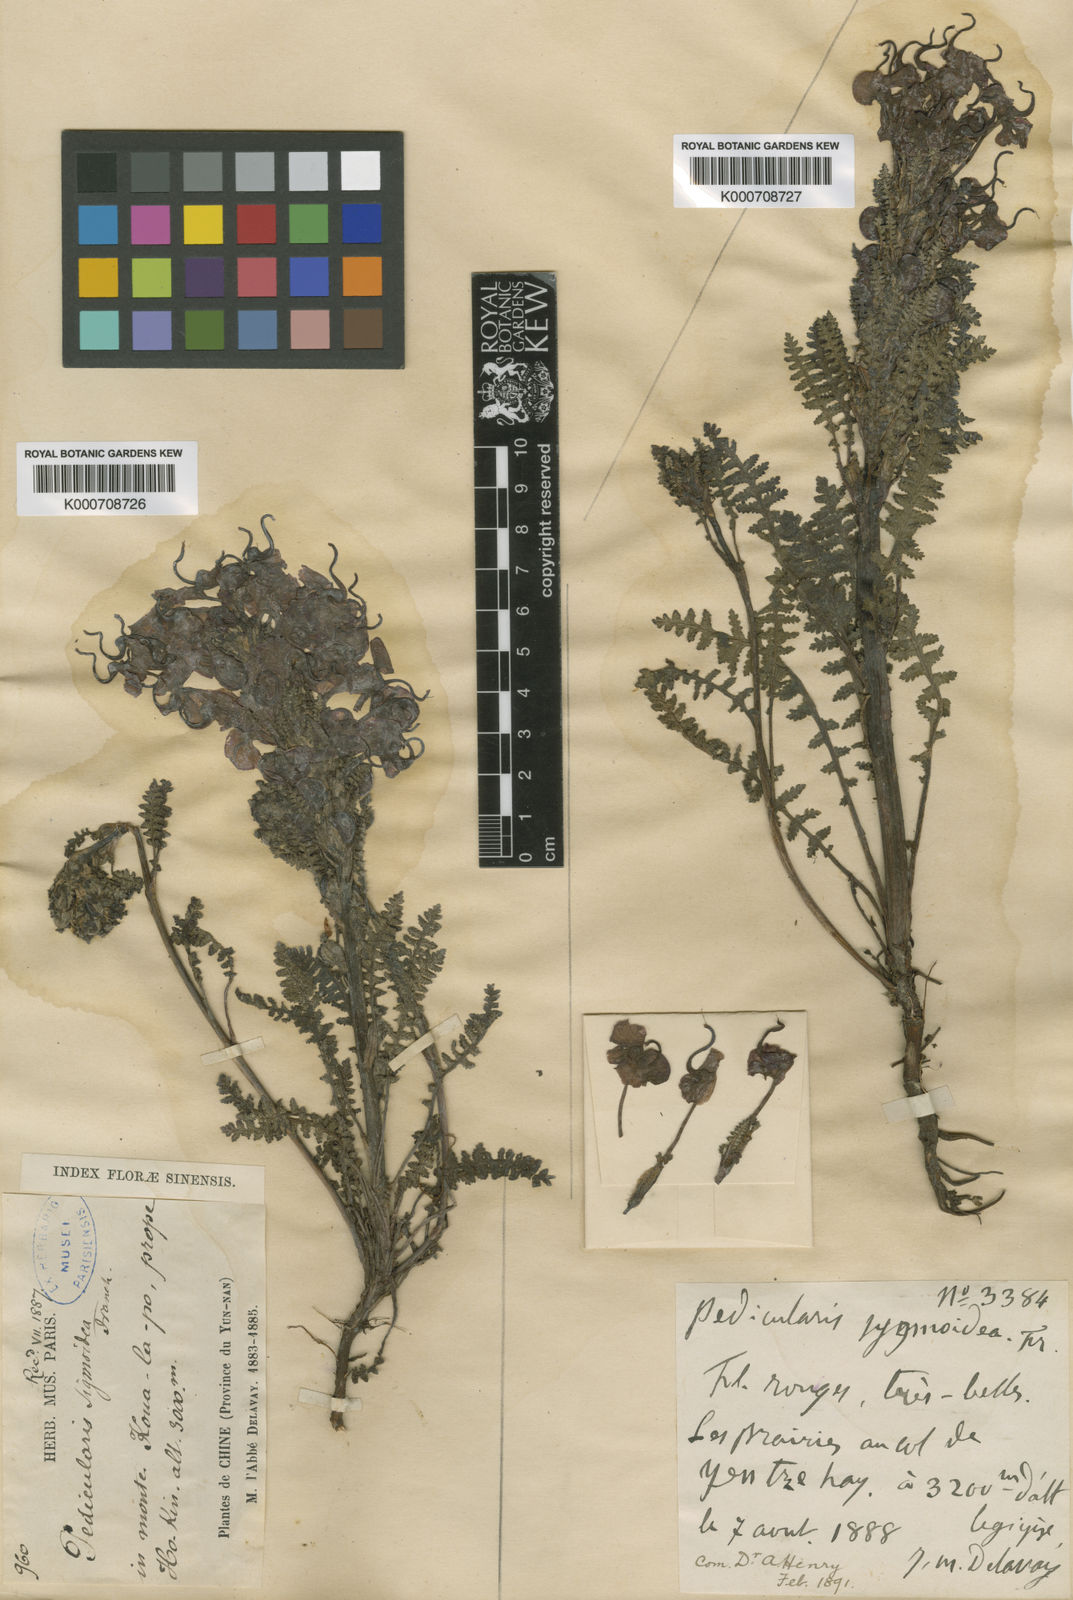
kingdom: Plantae
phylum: Tracheophyta
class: Magnoliopsida
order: Lamiales
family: Orobanchaceae
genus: Pedicularis
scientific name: Pedicularis sigmoidea
